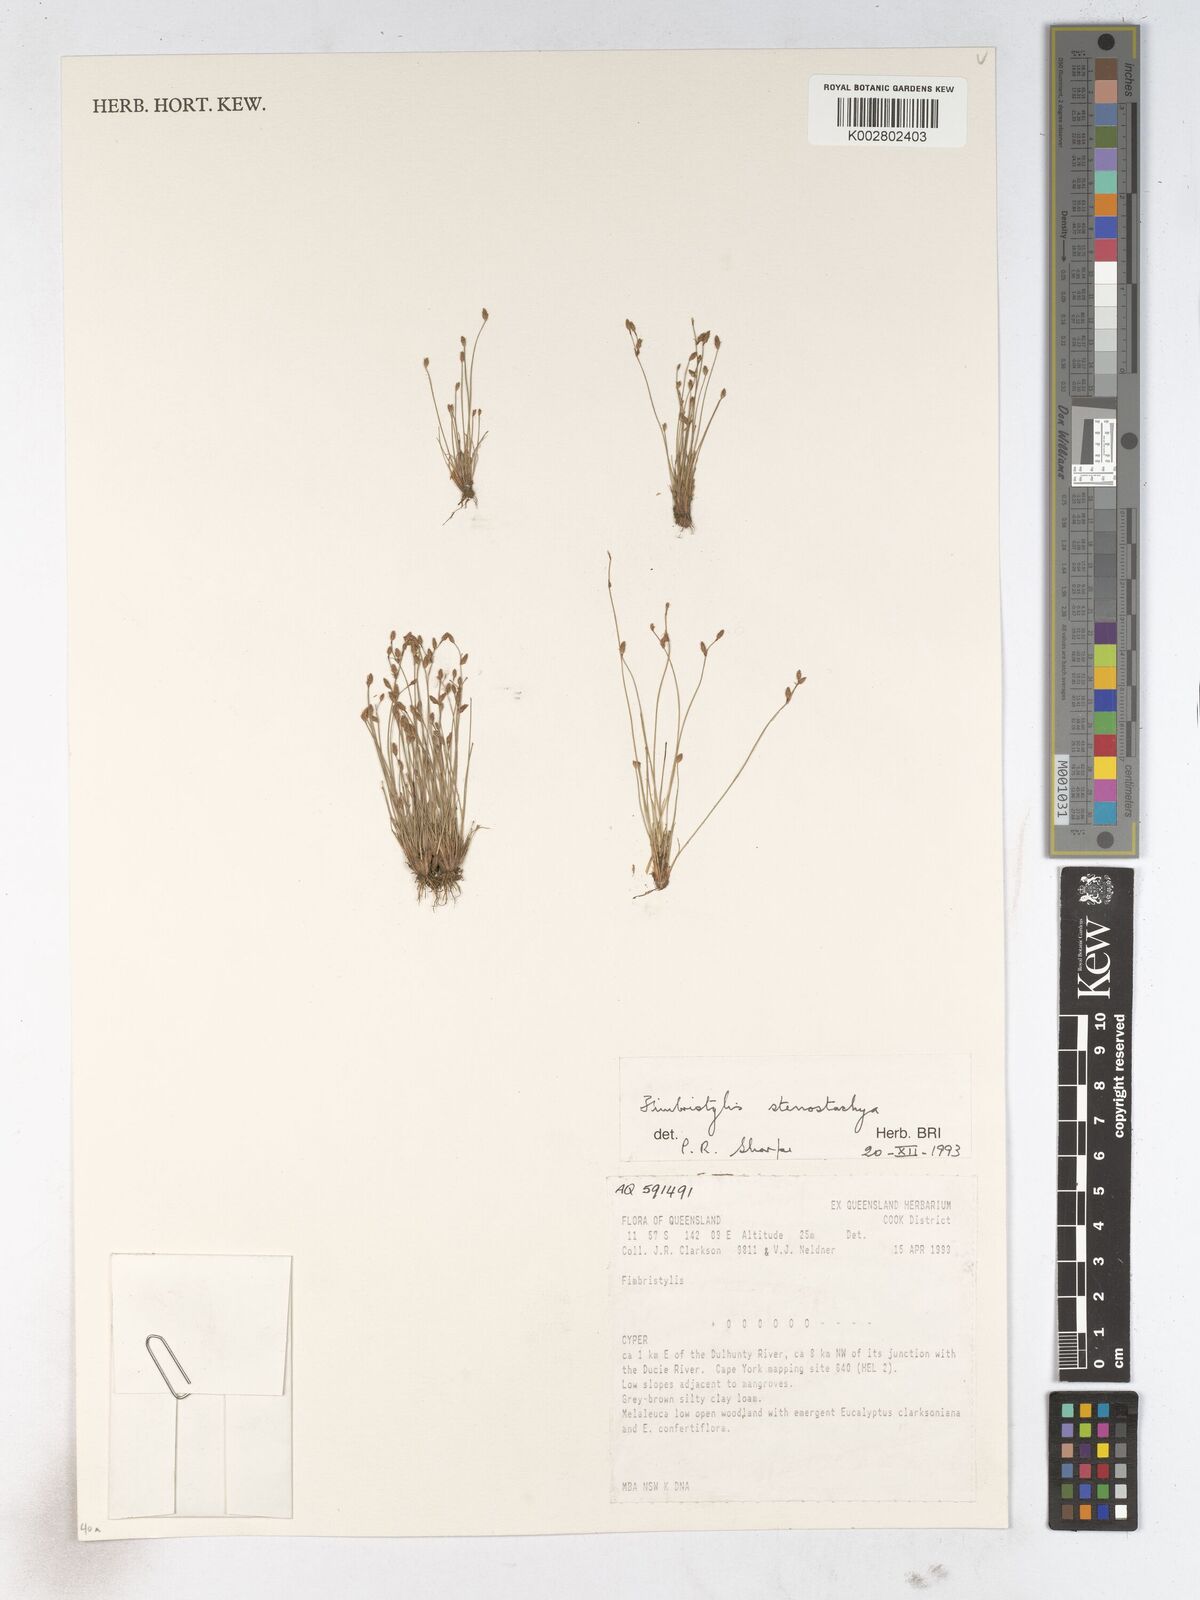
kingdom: Plantae
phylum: Tracheophyta
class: Liliopsida
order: Poales
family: Cyperaceae
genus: Fimbristylis
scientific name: Fimbristylis stenostachya
